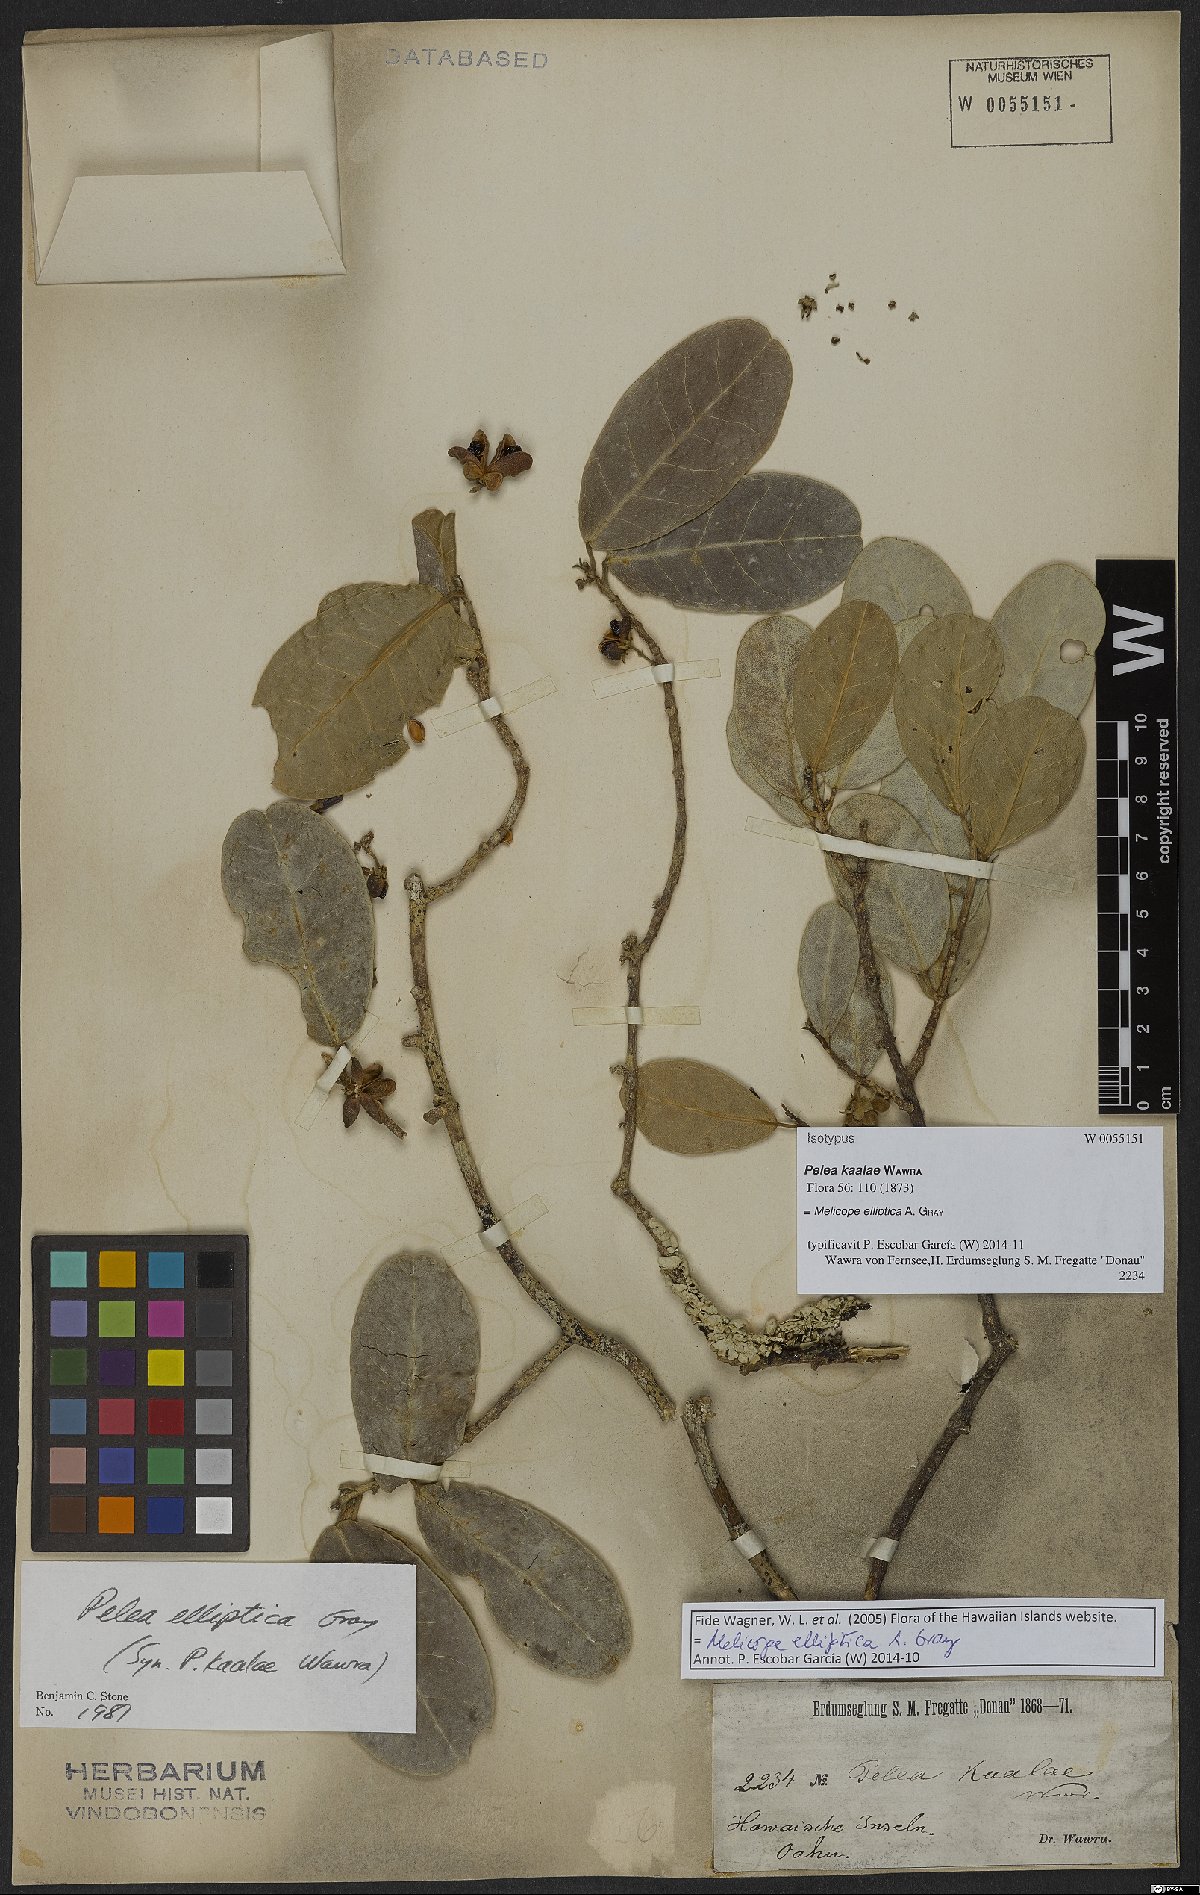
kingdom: Plantae
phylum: Tracheophyta
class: Magnoliopsida
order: Sapindales
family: Rutaceae
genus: Melicope
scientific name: Melicope elliptica
